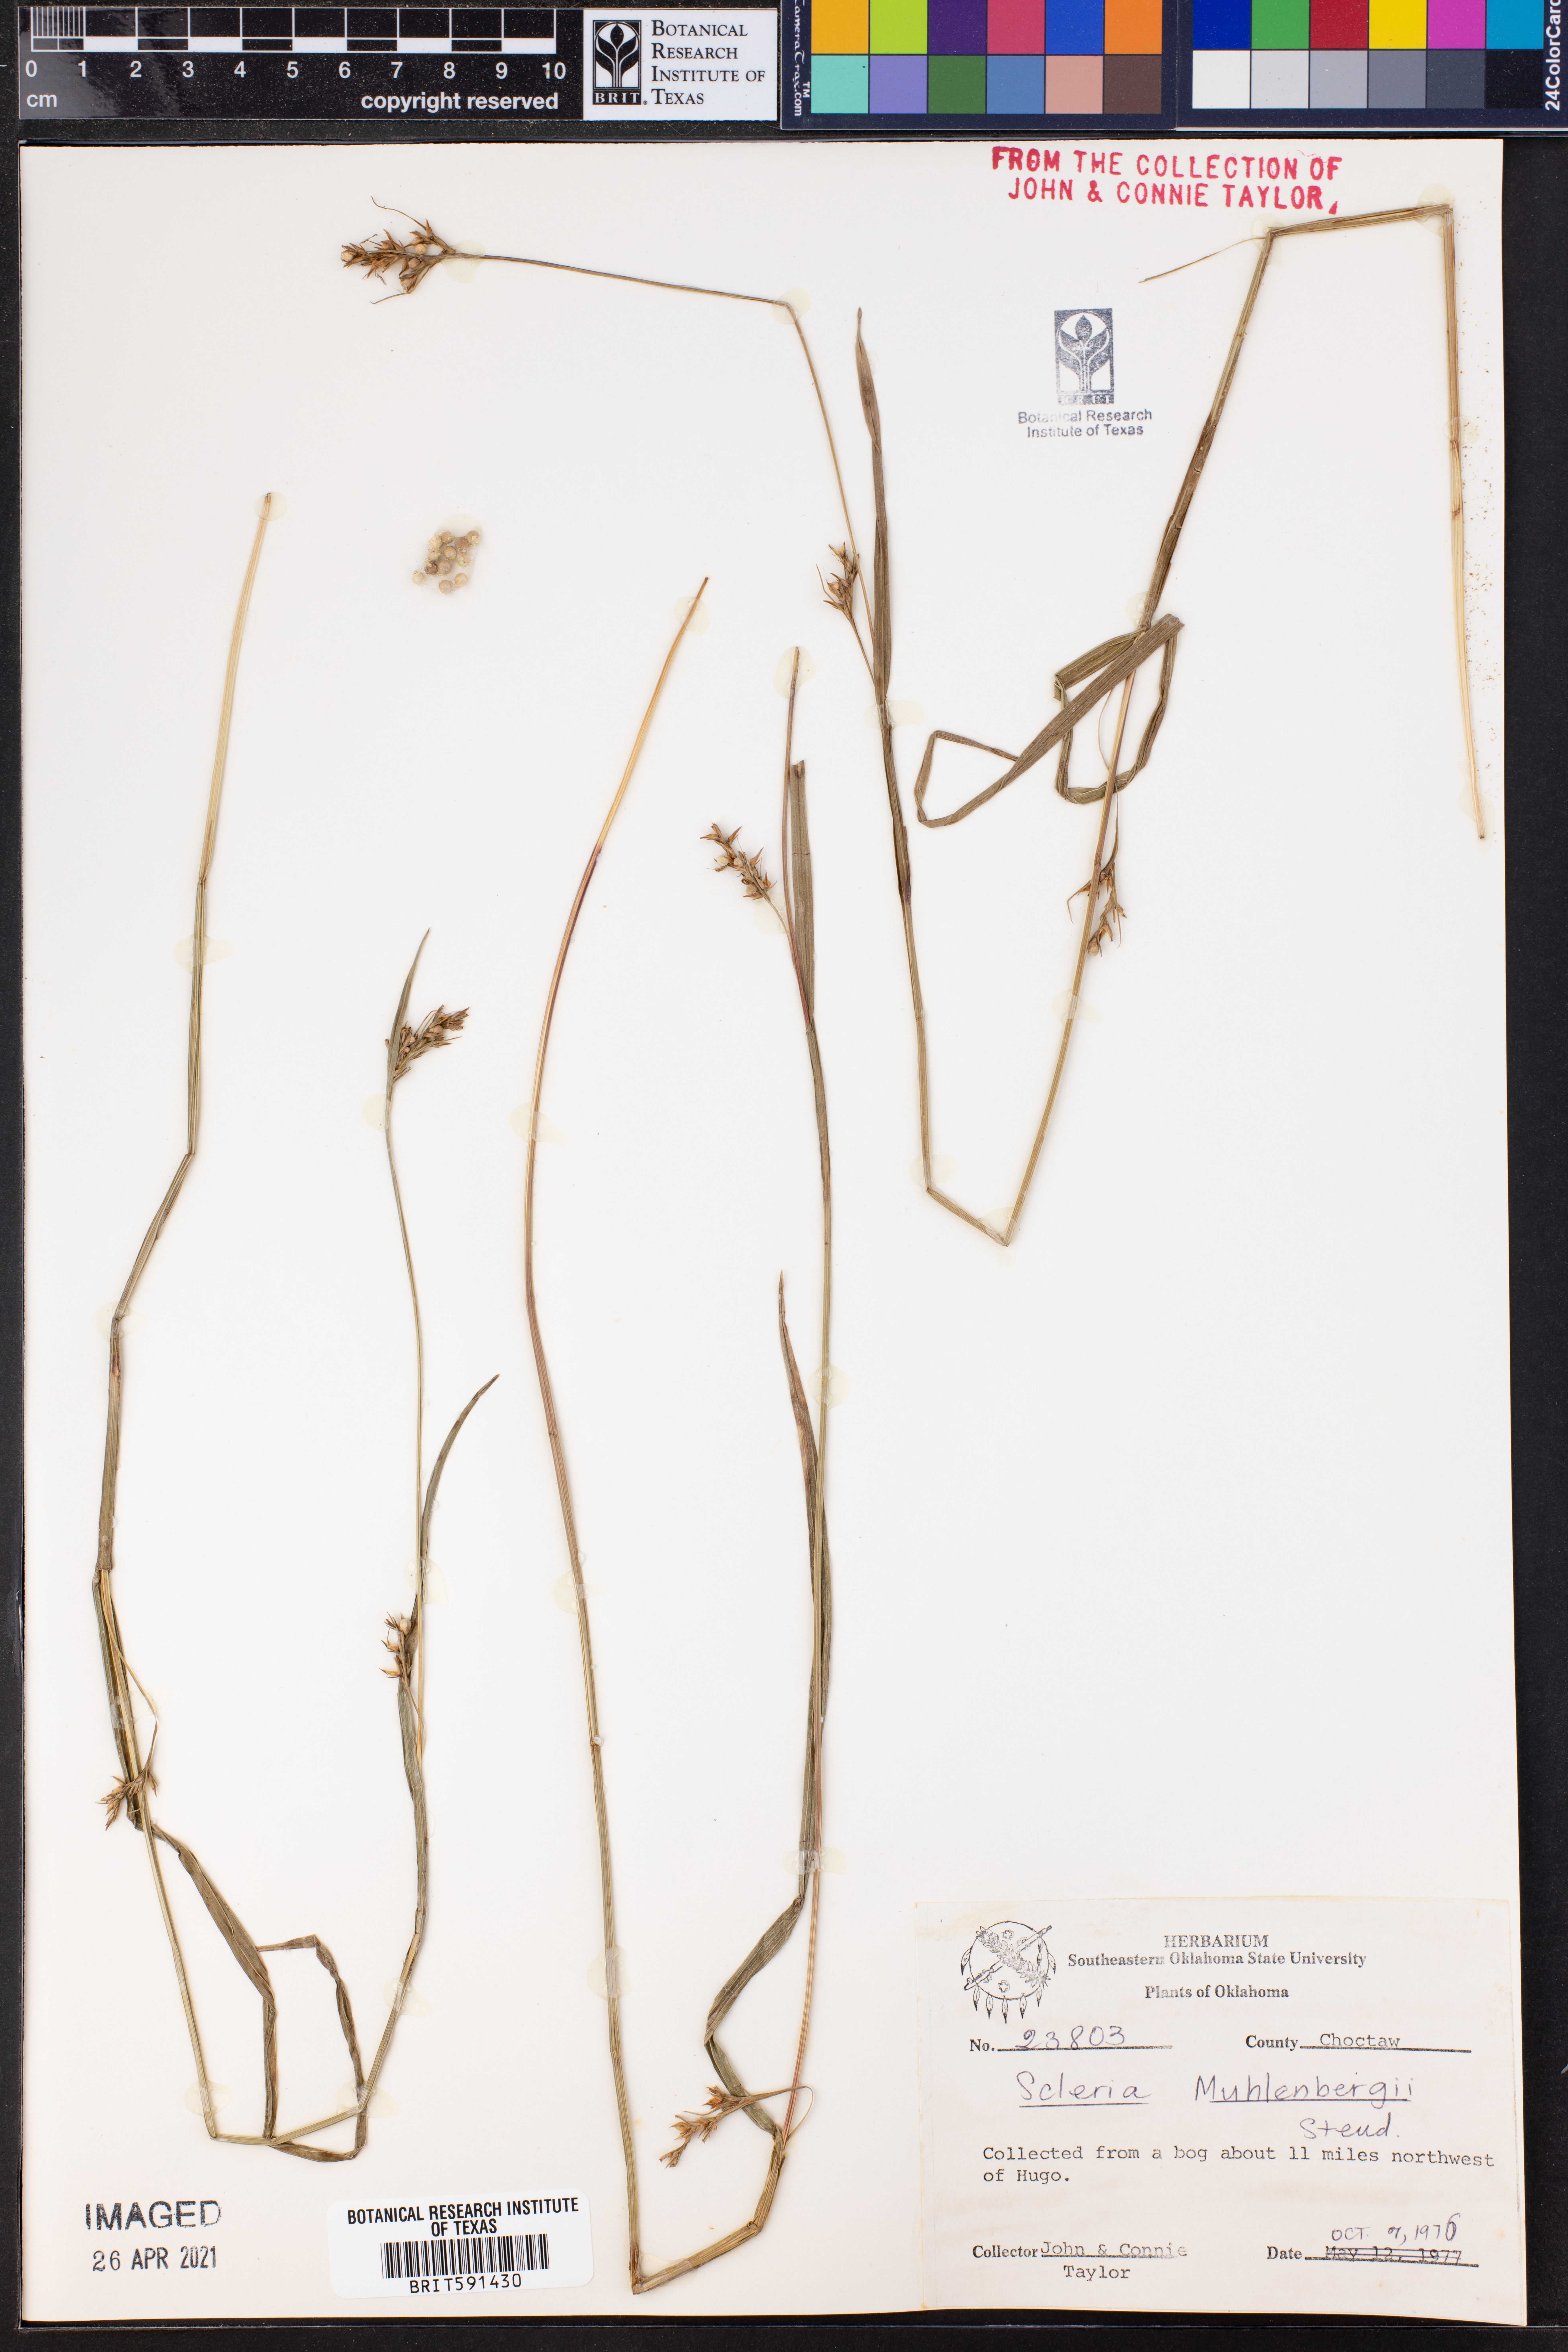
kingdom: Plantae
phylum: Tracheophyta
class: Liliopsida
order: Poales
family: Cyperaceae
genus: Scleria
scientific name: Scleria muehlenbergii
